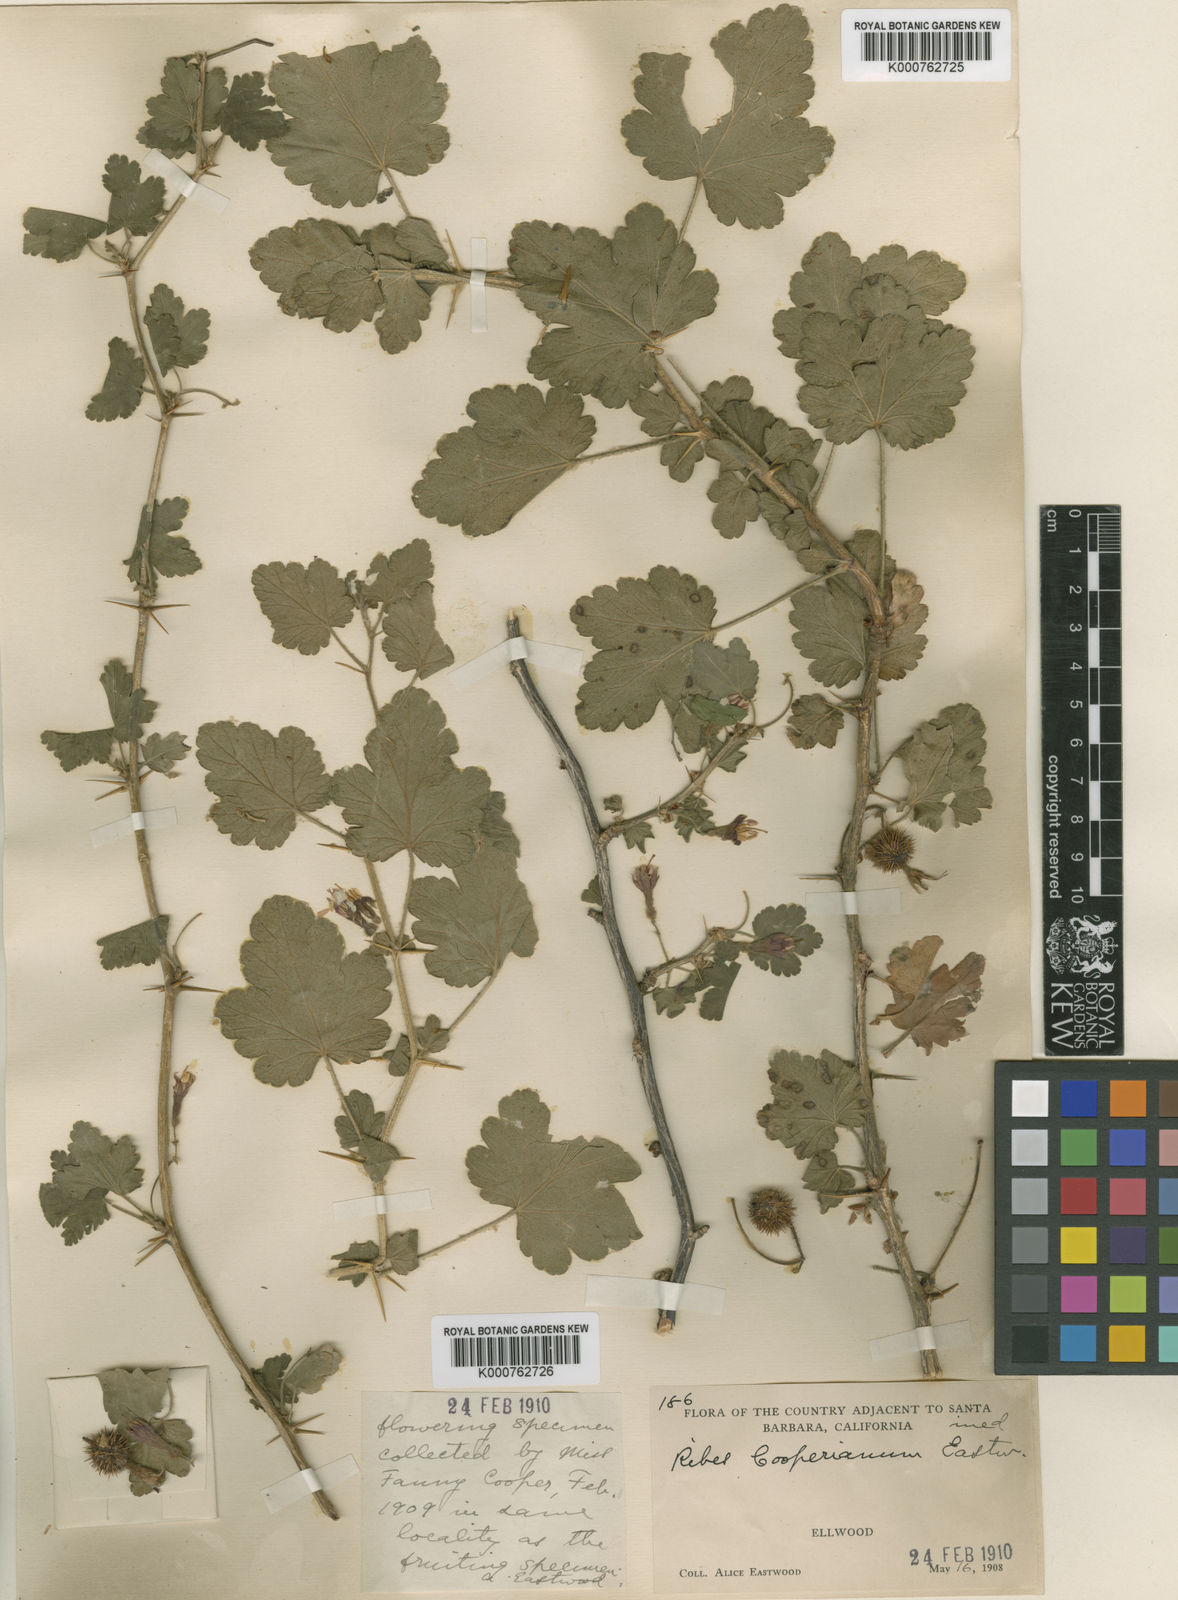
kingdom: Plantae
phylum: Tracheophyta
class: Magnoliopsida
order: Saxifragales
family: Grossulariaceae
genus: Ribes
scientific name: Ribes
